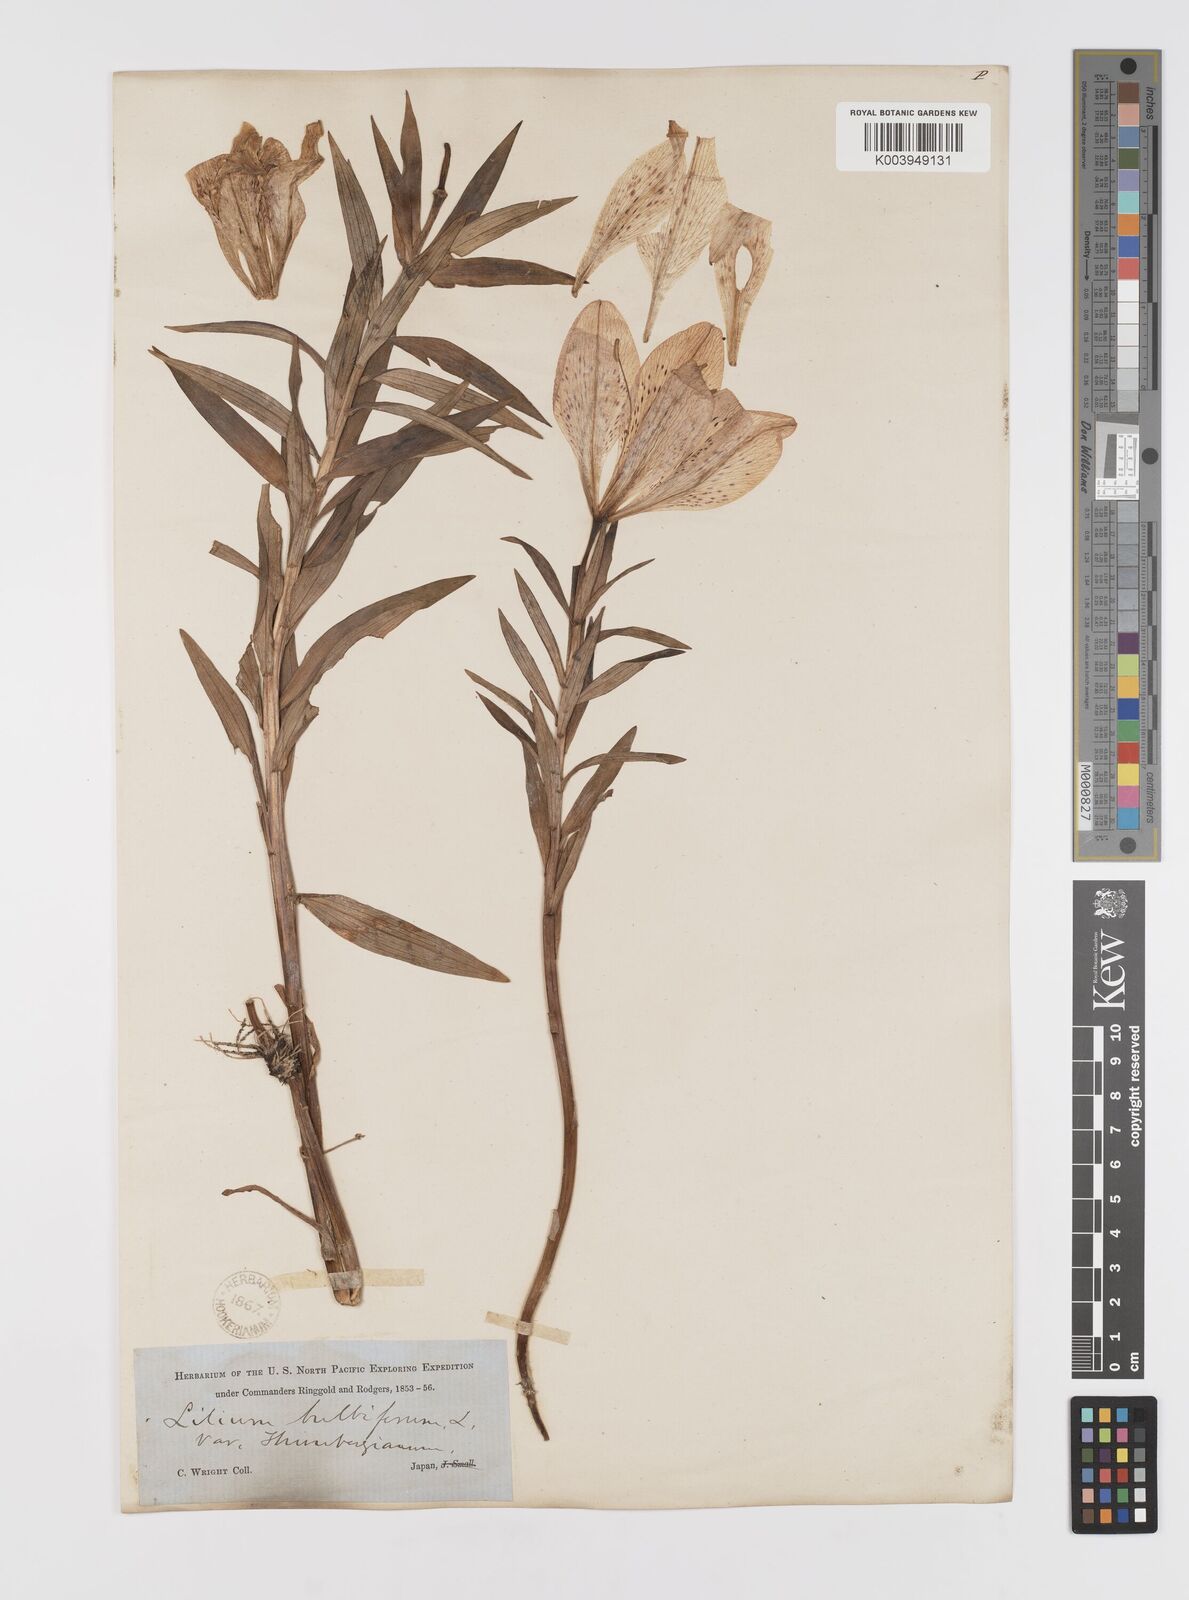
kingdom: Plantae
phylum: Tracheophyta
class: Liliopsida
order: Liliales
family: Liliaceae
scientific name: Liliaceae
